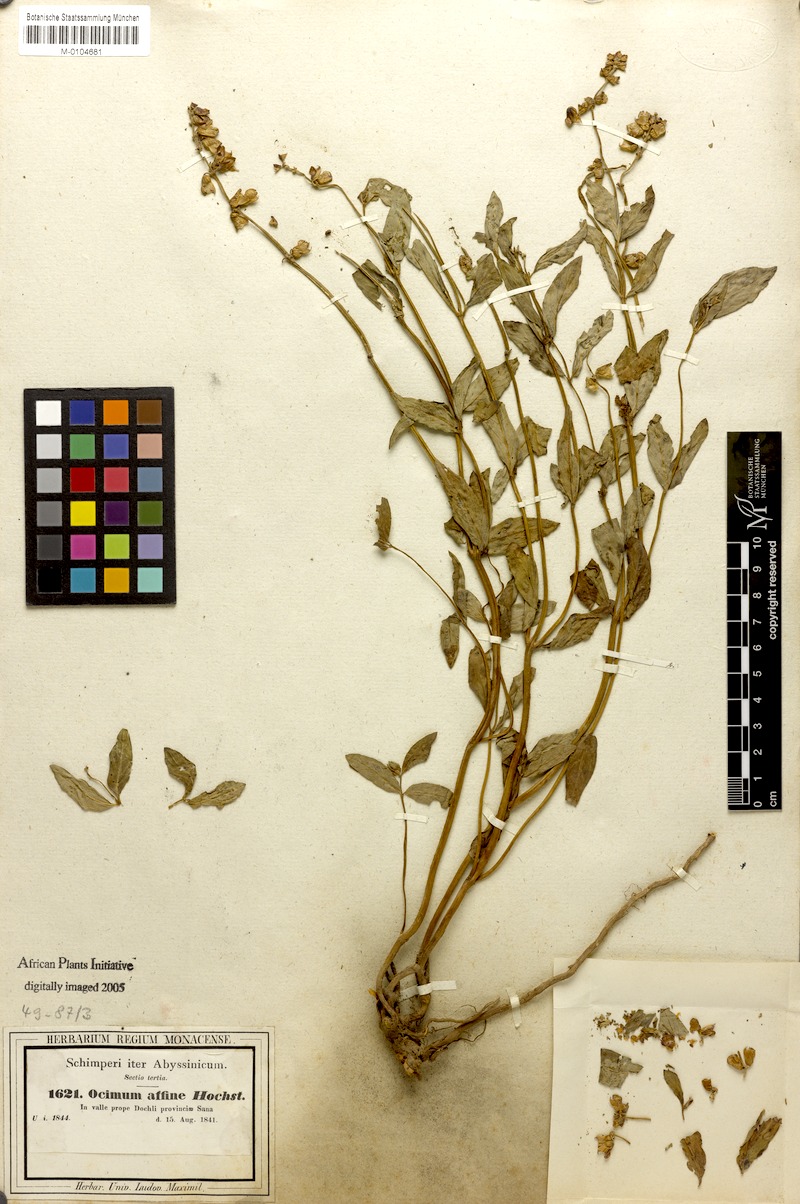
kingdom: Plantae
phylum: Tracheophyta
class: Magnoliopsida
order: Lamiales
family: Lamiaceae
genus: Ocimum
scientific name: Ocimum obovatum
